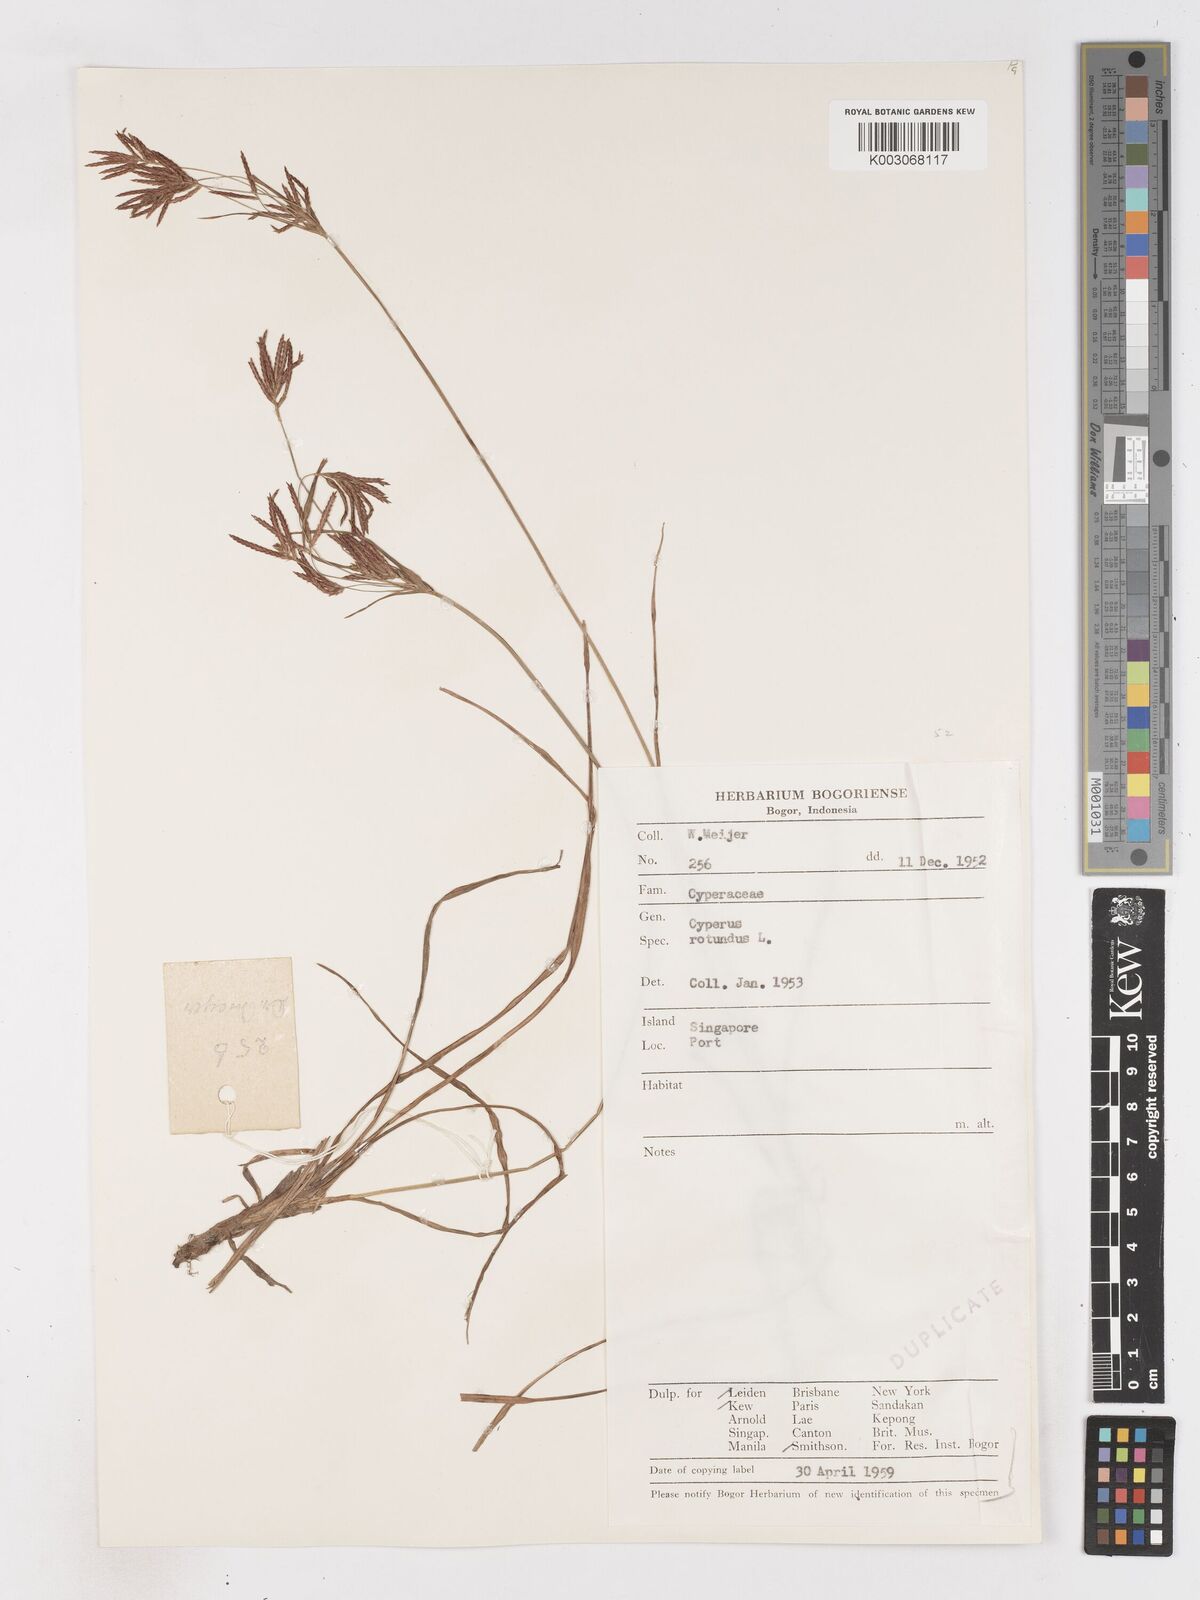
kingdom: Plantae
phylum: Tracheophyta
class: Liliopsida
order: Poales
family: Cyperaceae
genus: Cyperus
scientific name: Cyperus rotundus
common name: Nutgrass
